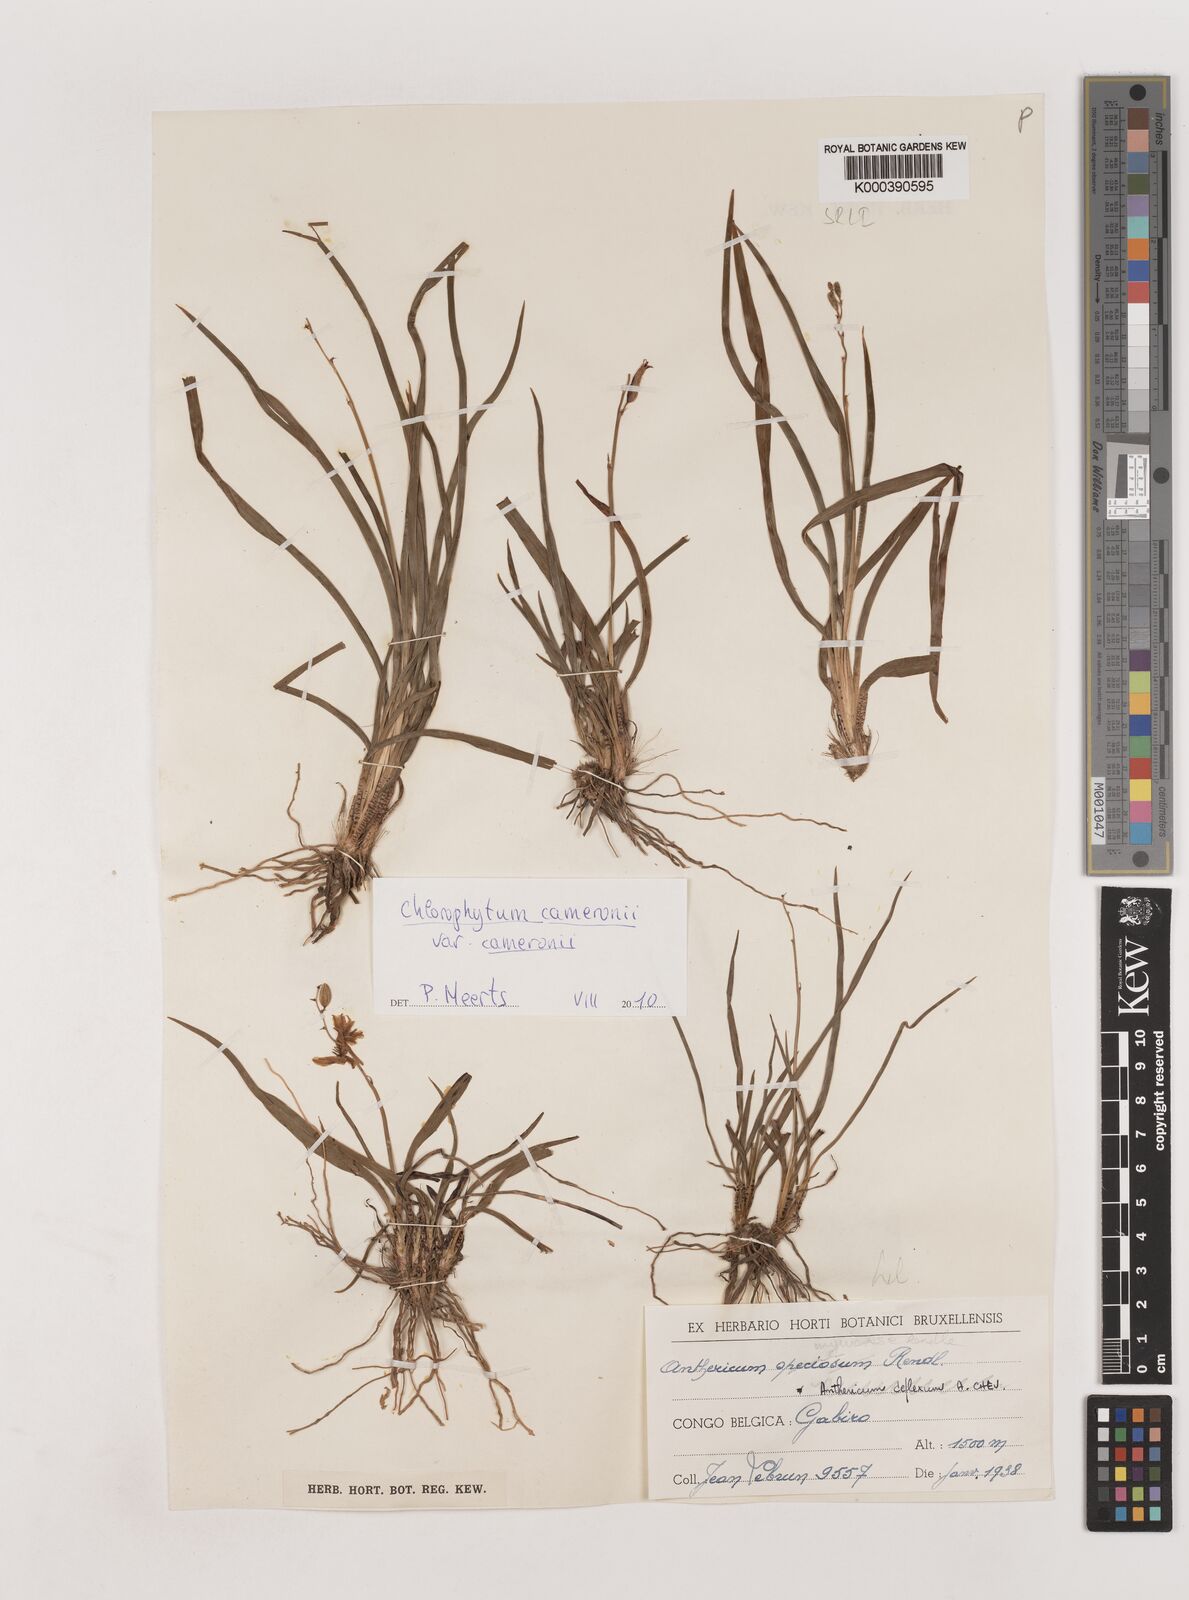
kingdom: Plantae
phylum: Tracheophyta
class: Liliopsida
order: Asparagales
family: Asparagaceae
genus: Chlorophytum
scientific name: Chlorophytum cameronii
